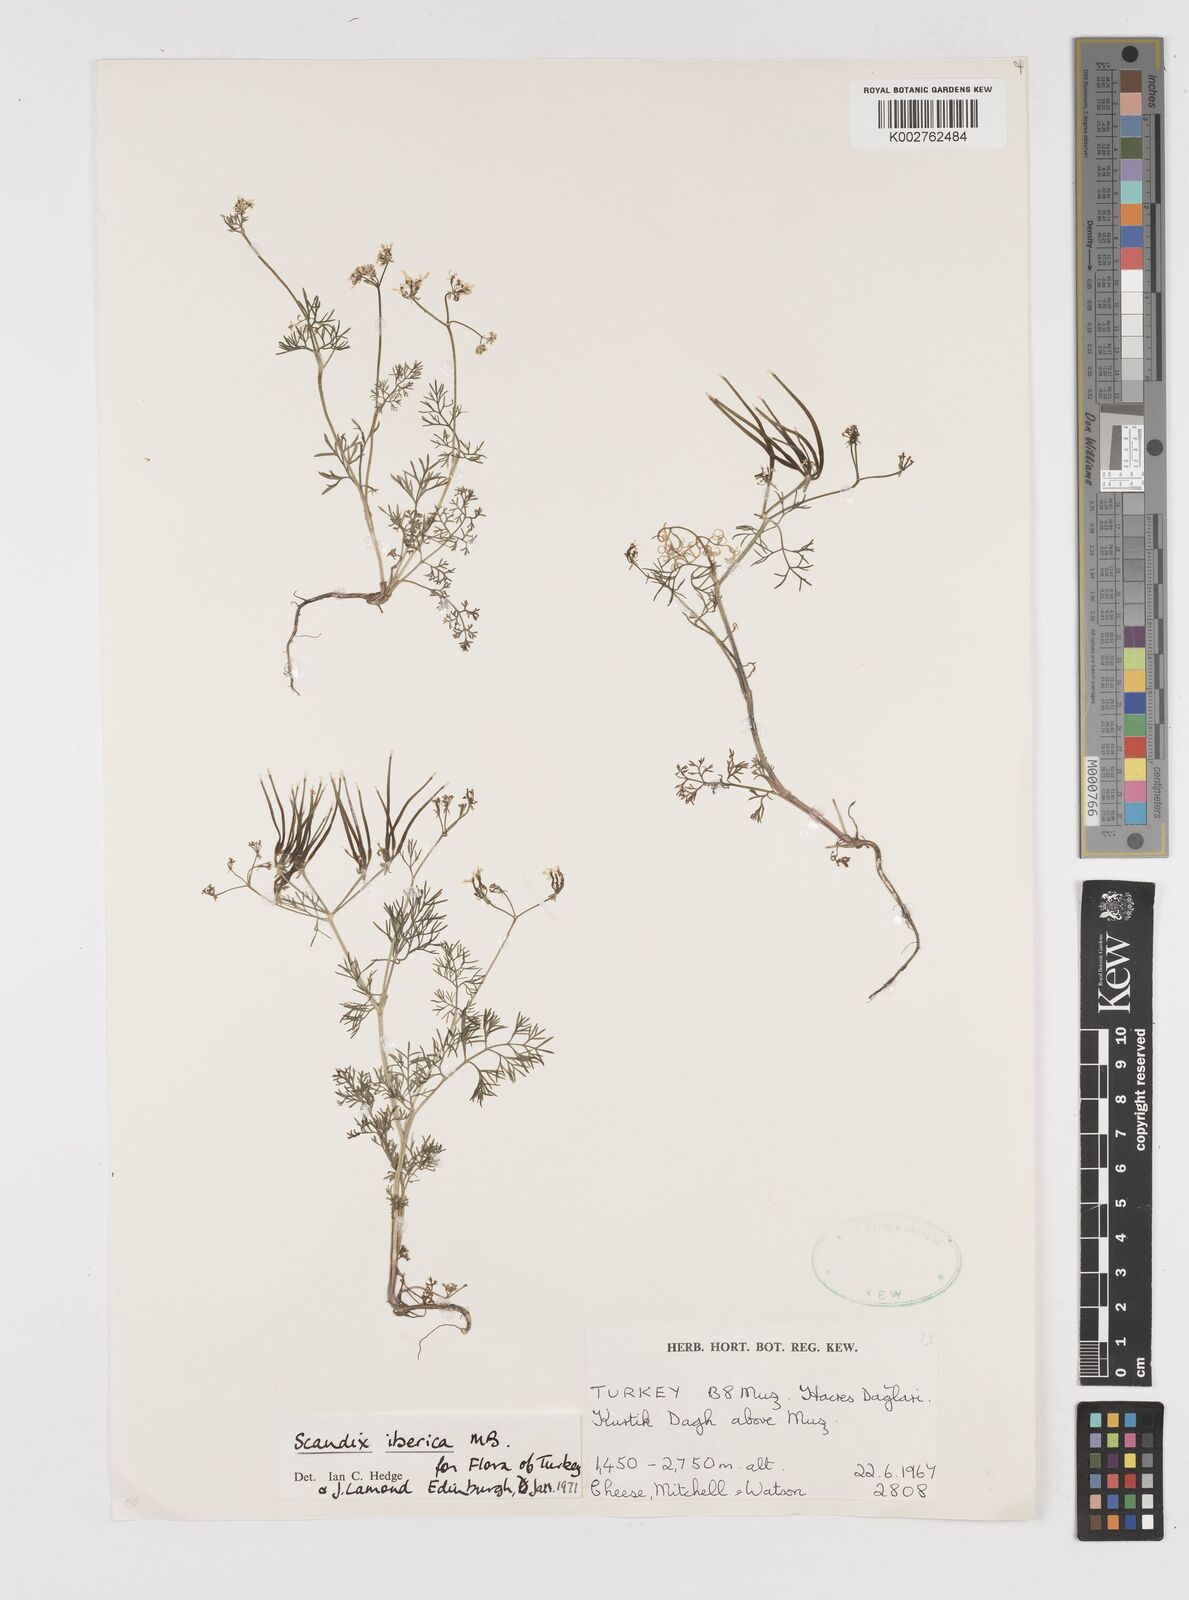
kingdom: Plantae
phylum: Tracheophyta
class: Magnoliopsida
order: Apiales
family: Apiaceae
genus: Scandix
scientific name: Scandix iberica
